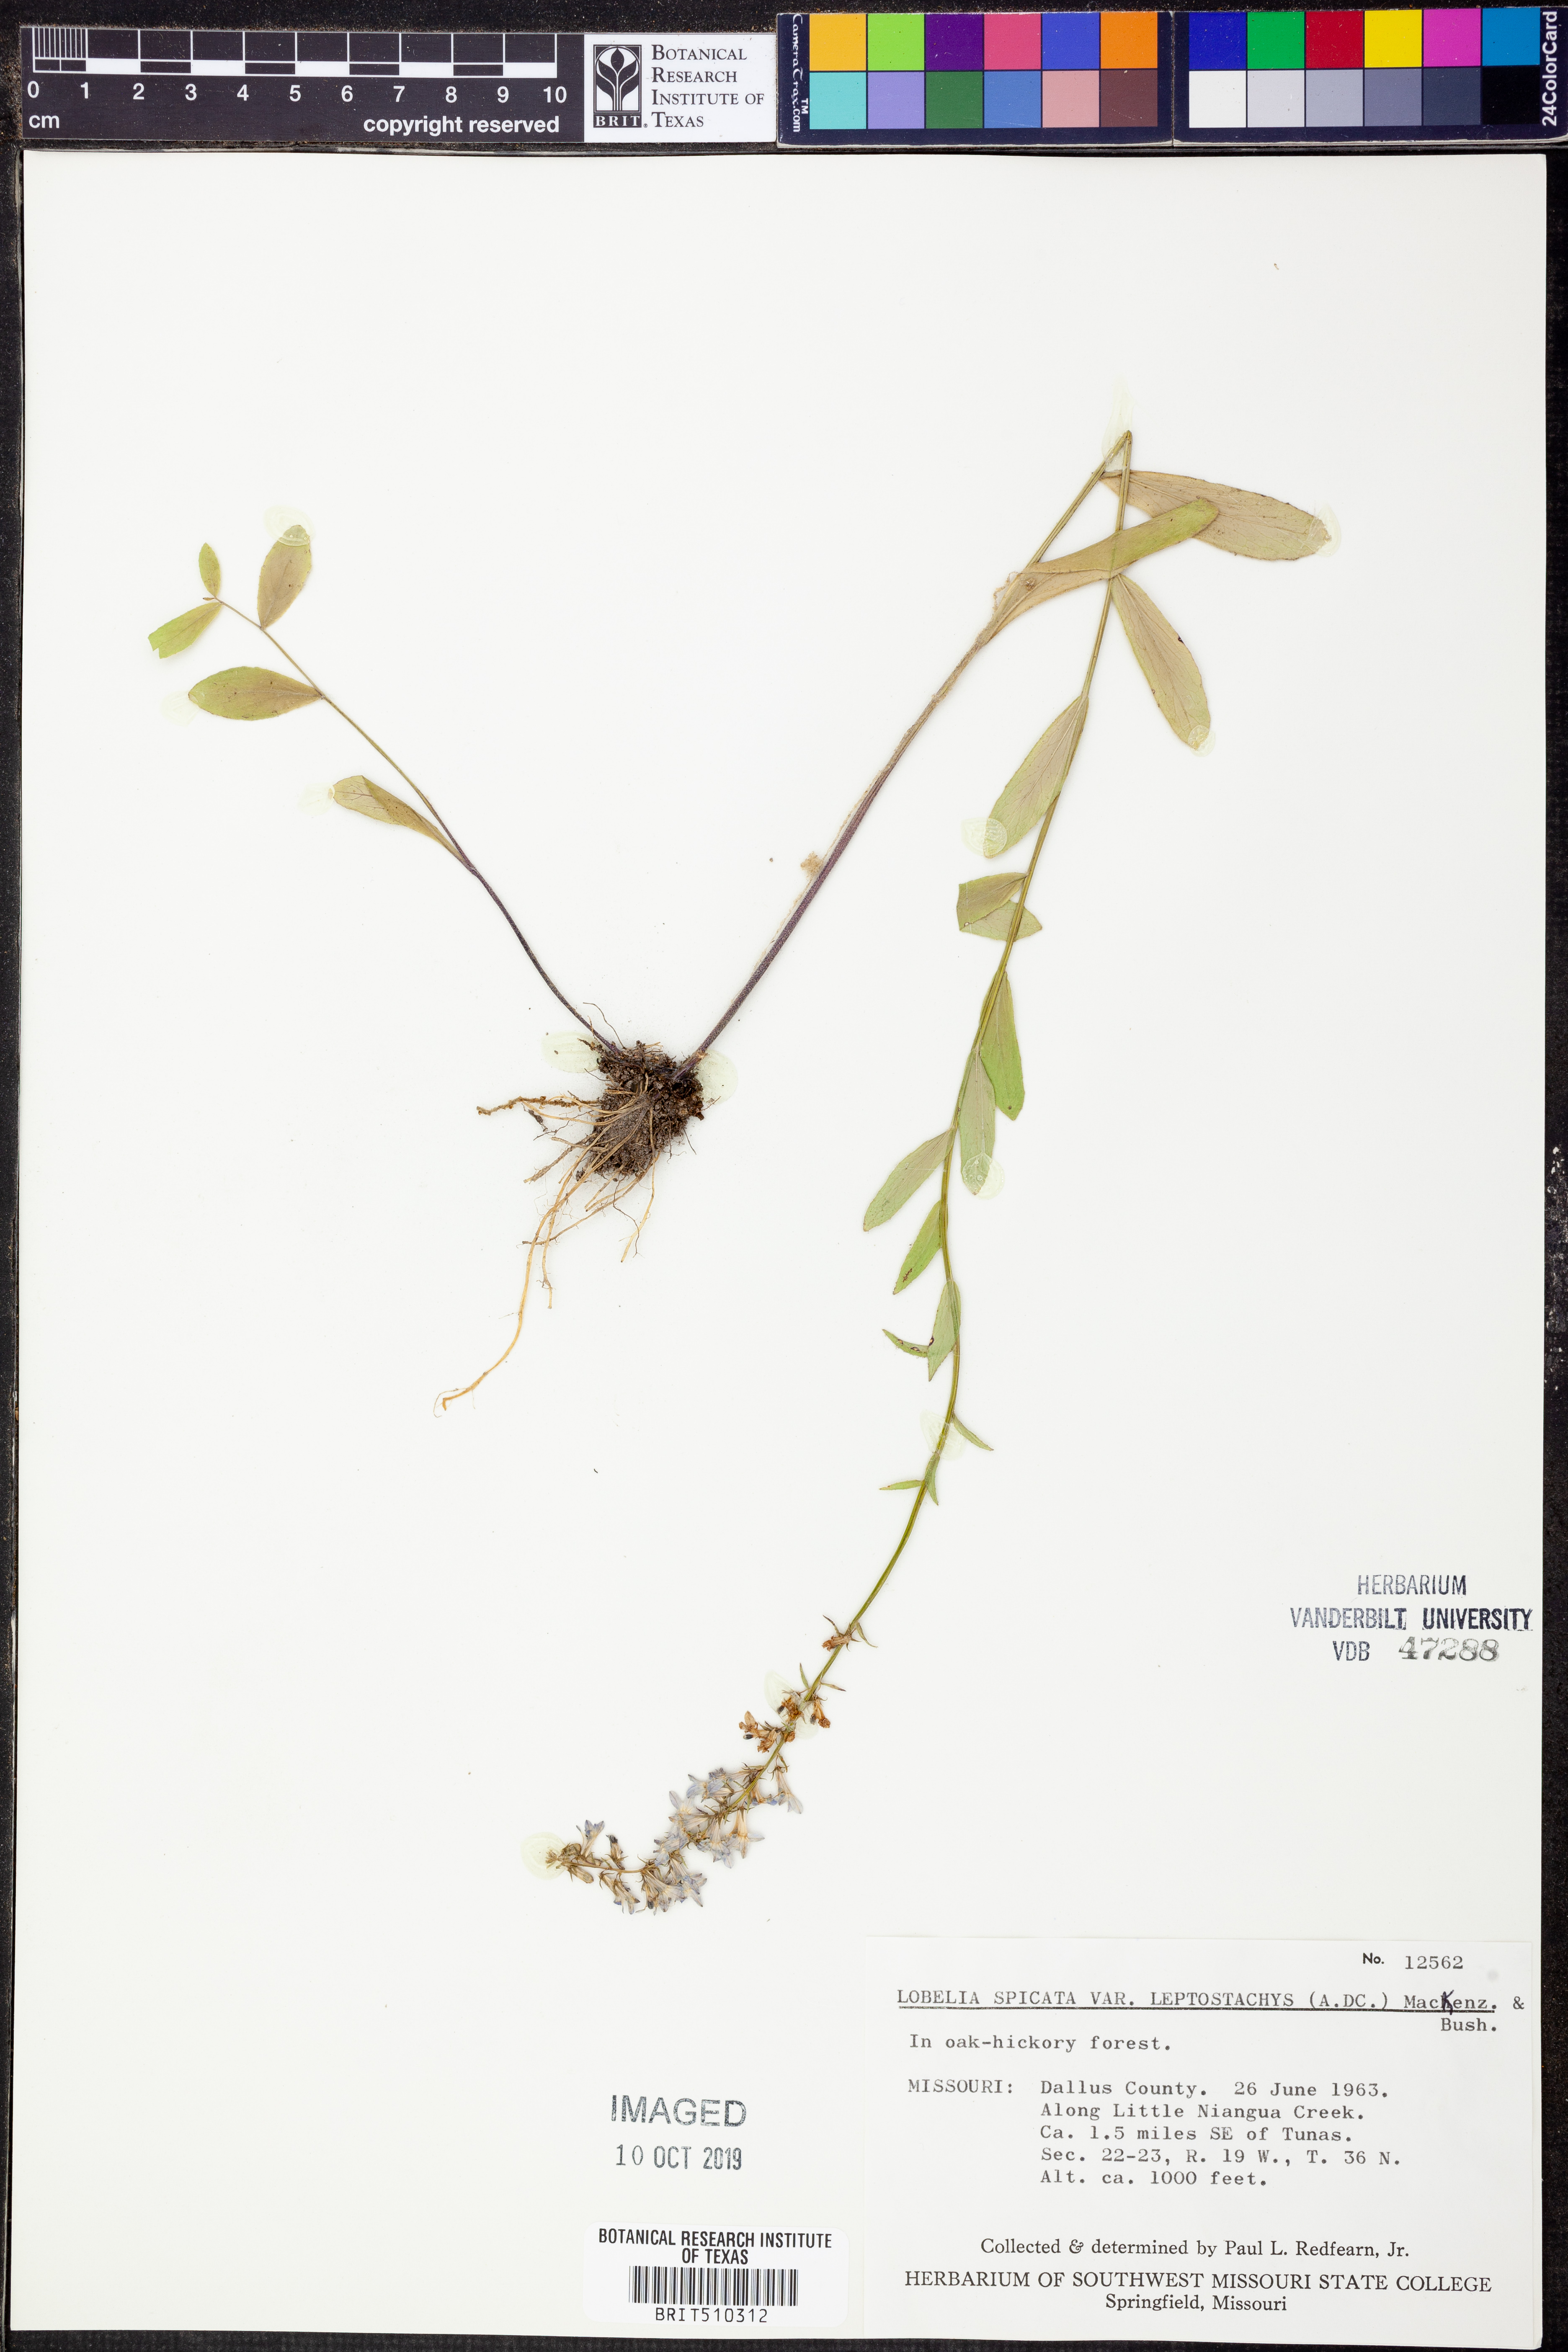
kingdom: Plantae
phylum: Tracheophyta
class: Magnoliopsida
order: Asterales
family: Campanulaceae
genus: Lobelia
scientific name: Lobelia spicata
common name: Pale-spike lobelia
